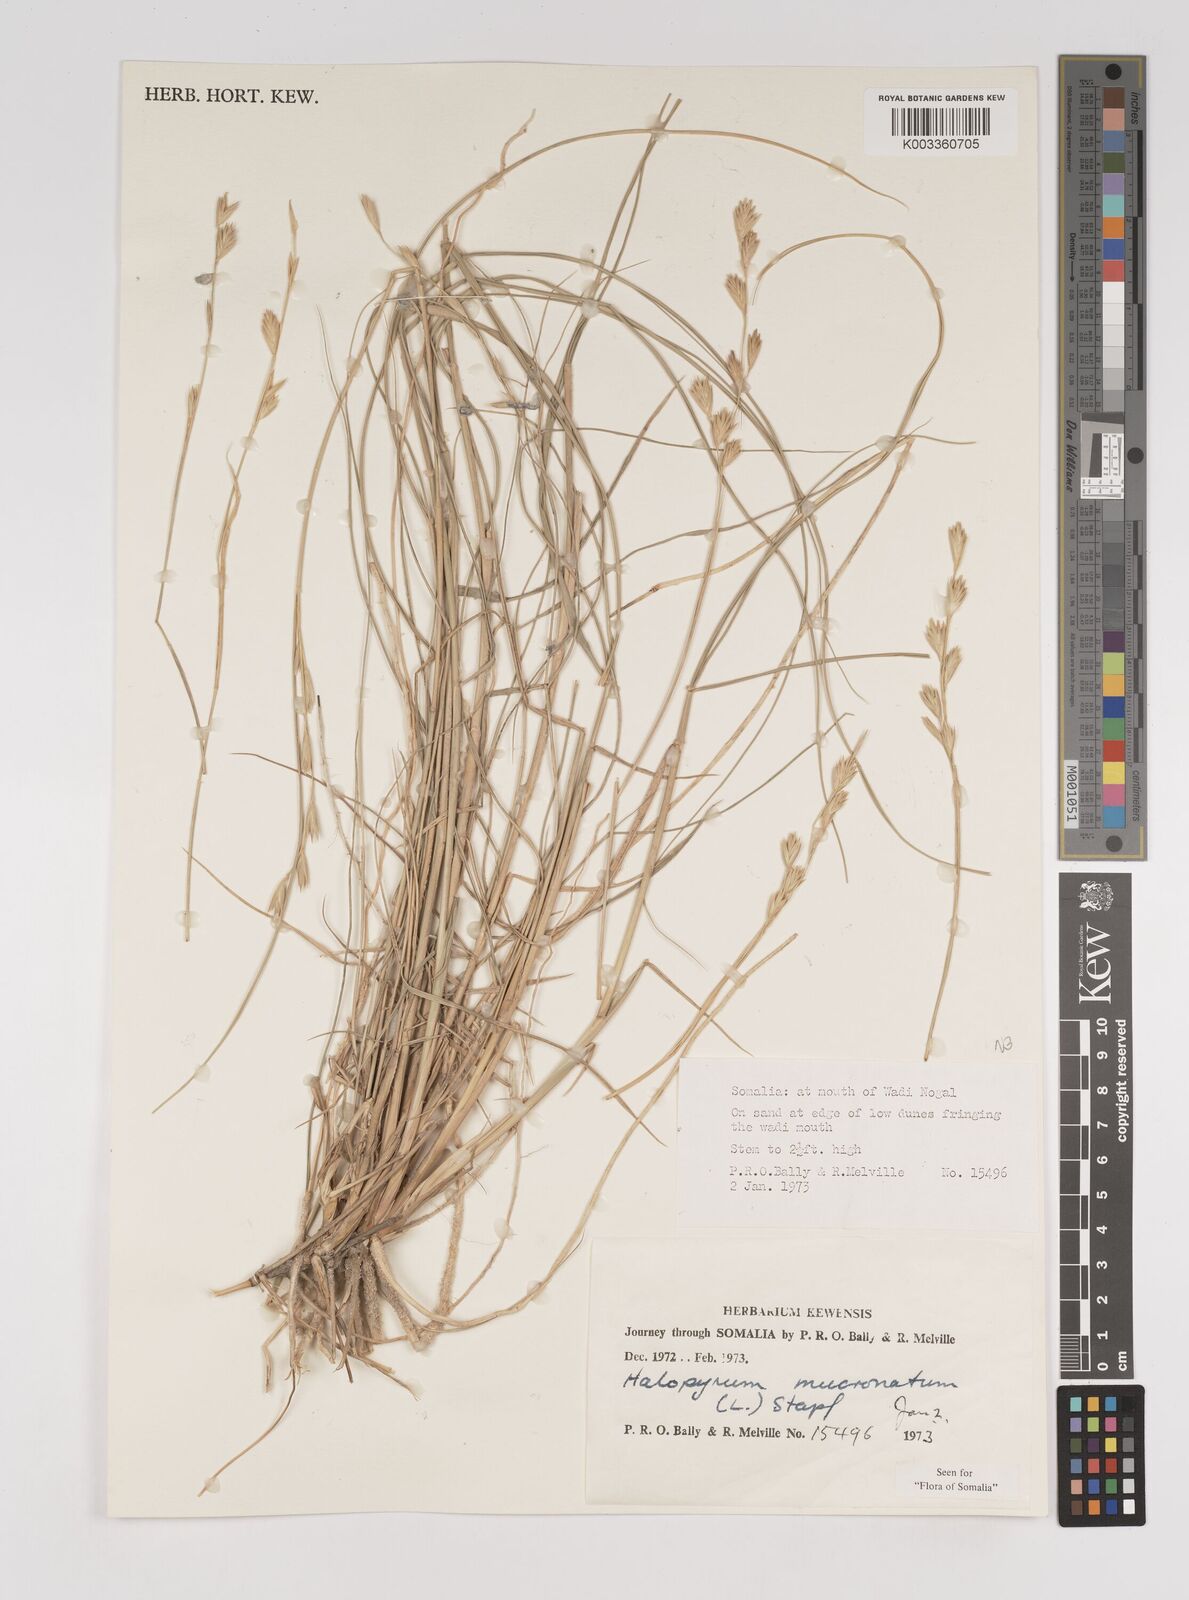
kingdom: Plantae
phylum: Tracheophyta
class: Liliopsida
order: Poales
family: Poaceae
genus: Halopyrum
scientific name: Halopyrum mucronatum
